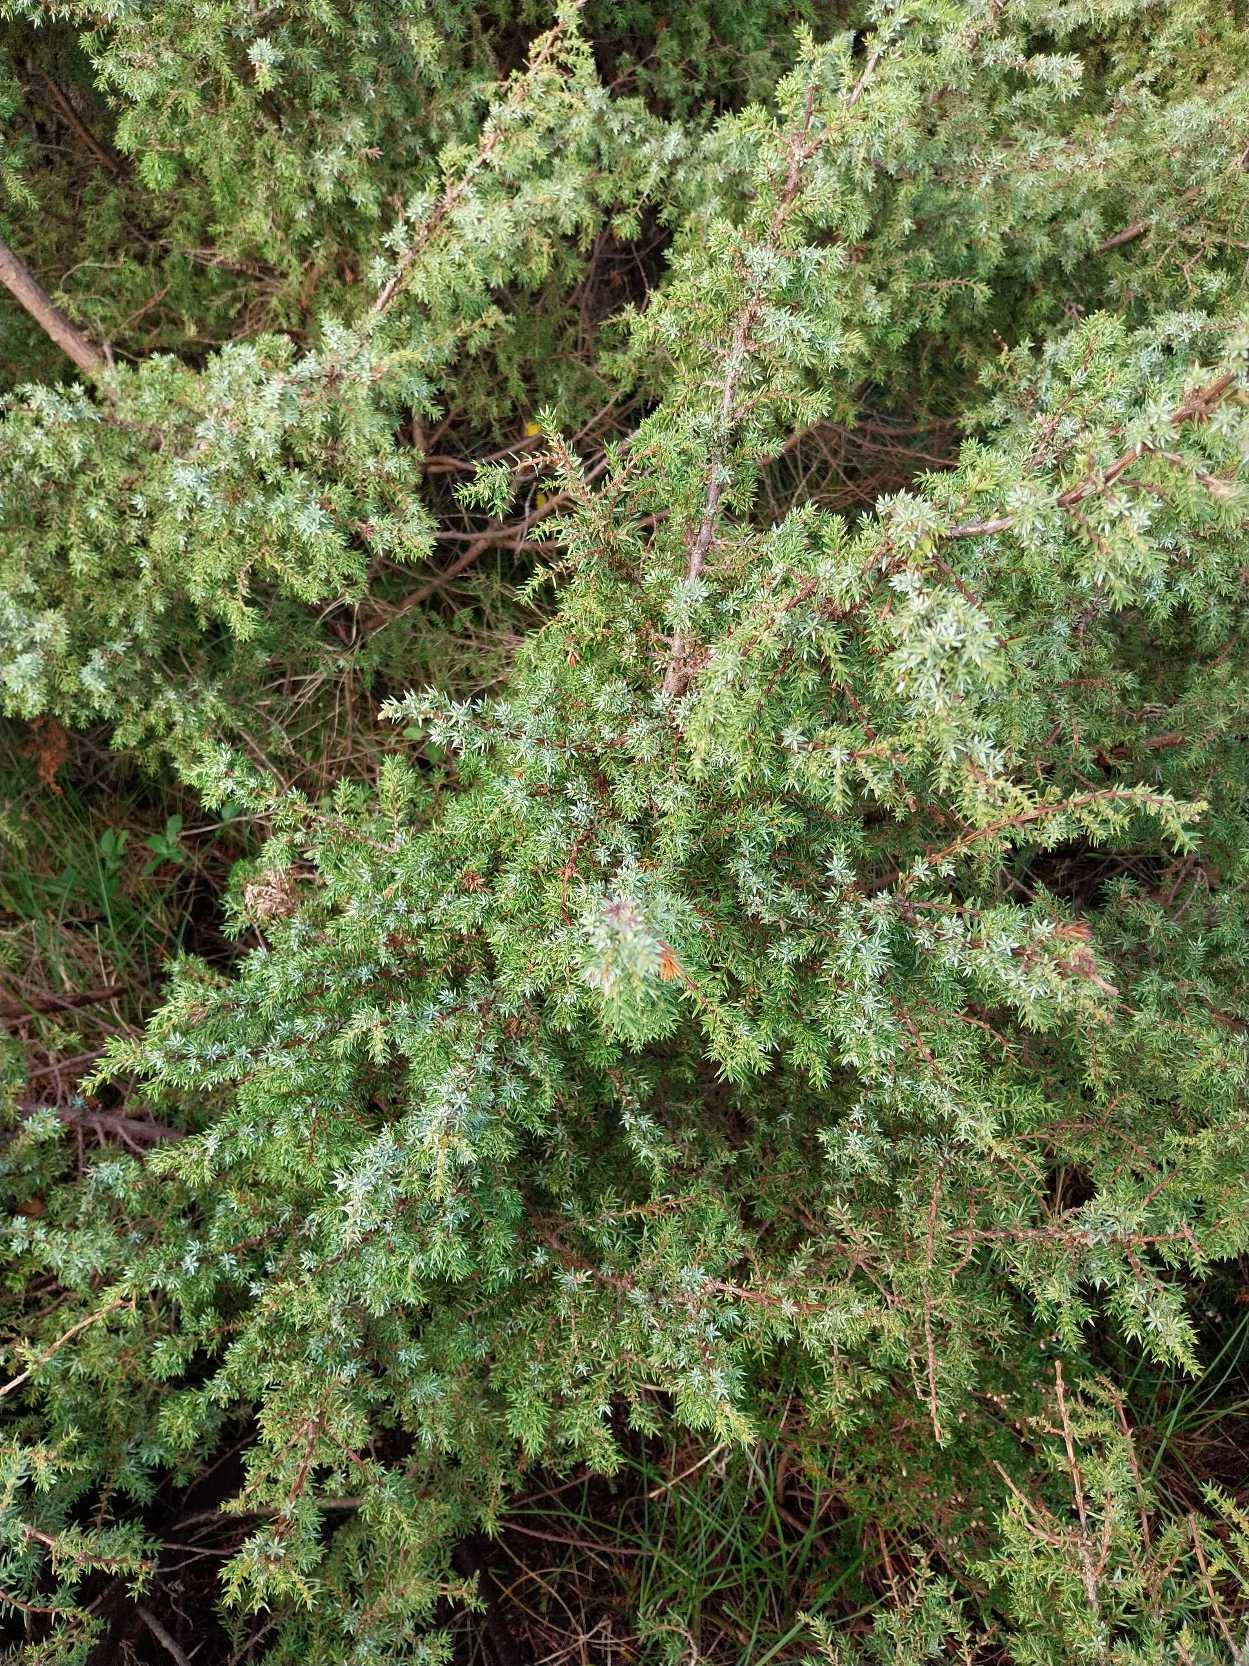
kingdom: Plantae
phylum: Tracheophyta
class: Pinopsida
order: Pinales
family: Cupressaceae
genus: Juniperus
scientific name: Juniperus communis
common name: Almindelig ene
